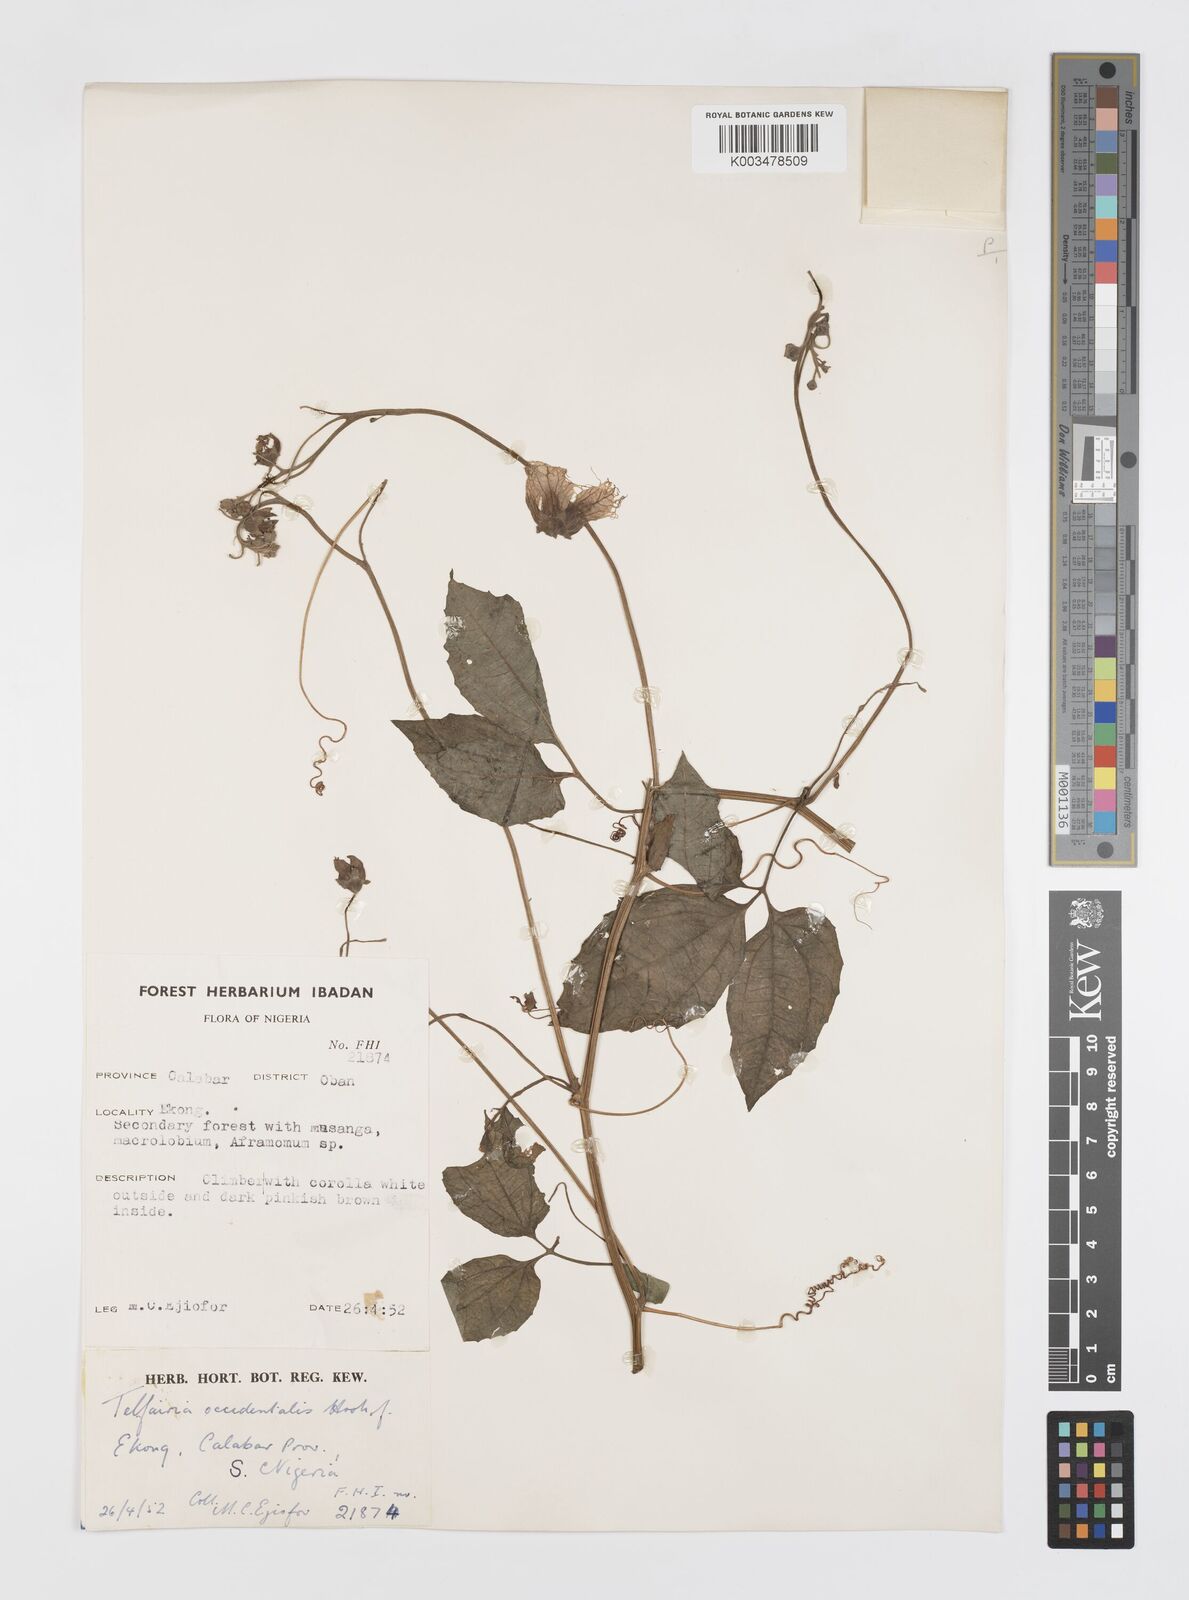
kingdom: Plantae
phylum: Tracheophyta
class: Magnoliopsida
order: Cucurbitales
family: Cucurbitaceae
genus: Telfairia
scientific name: Telfairia occidentalis
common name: Oysternut
